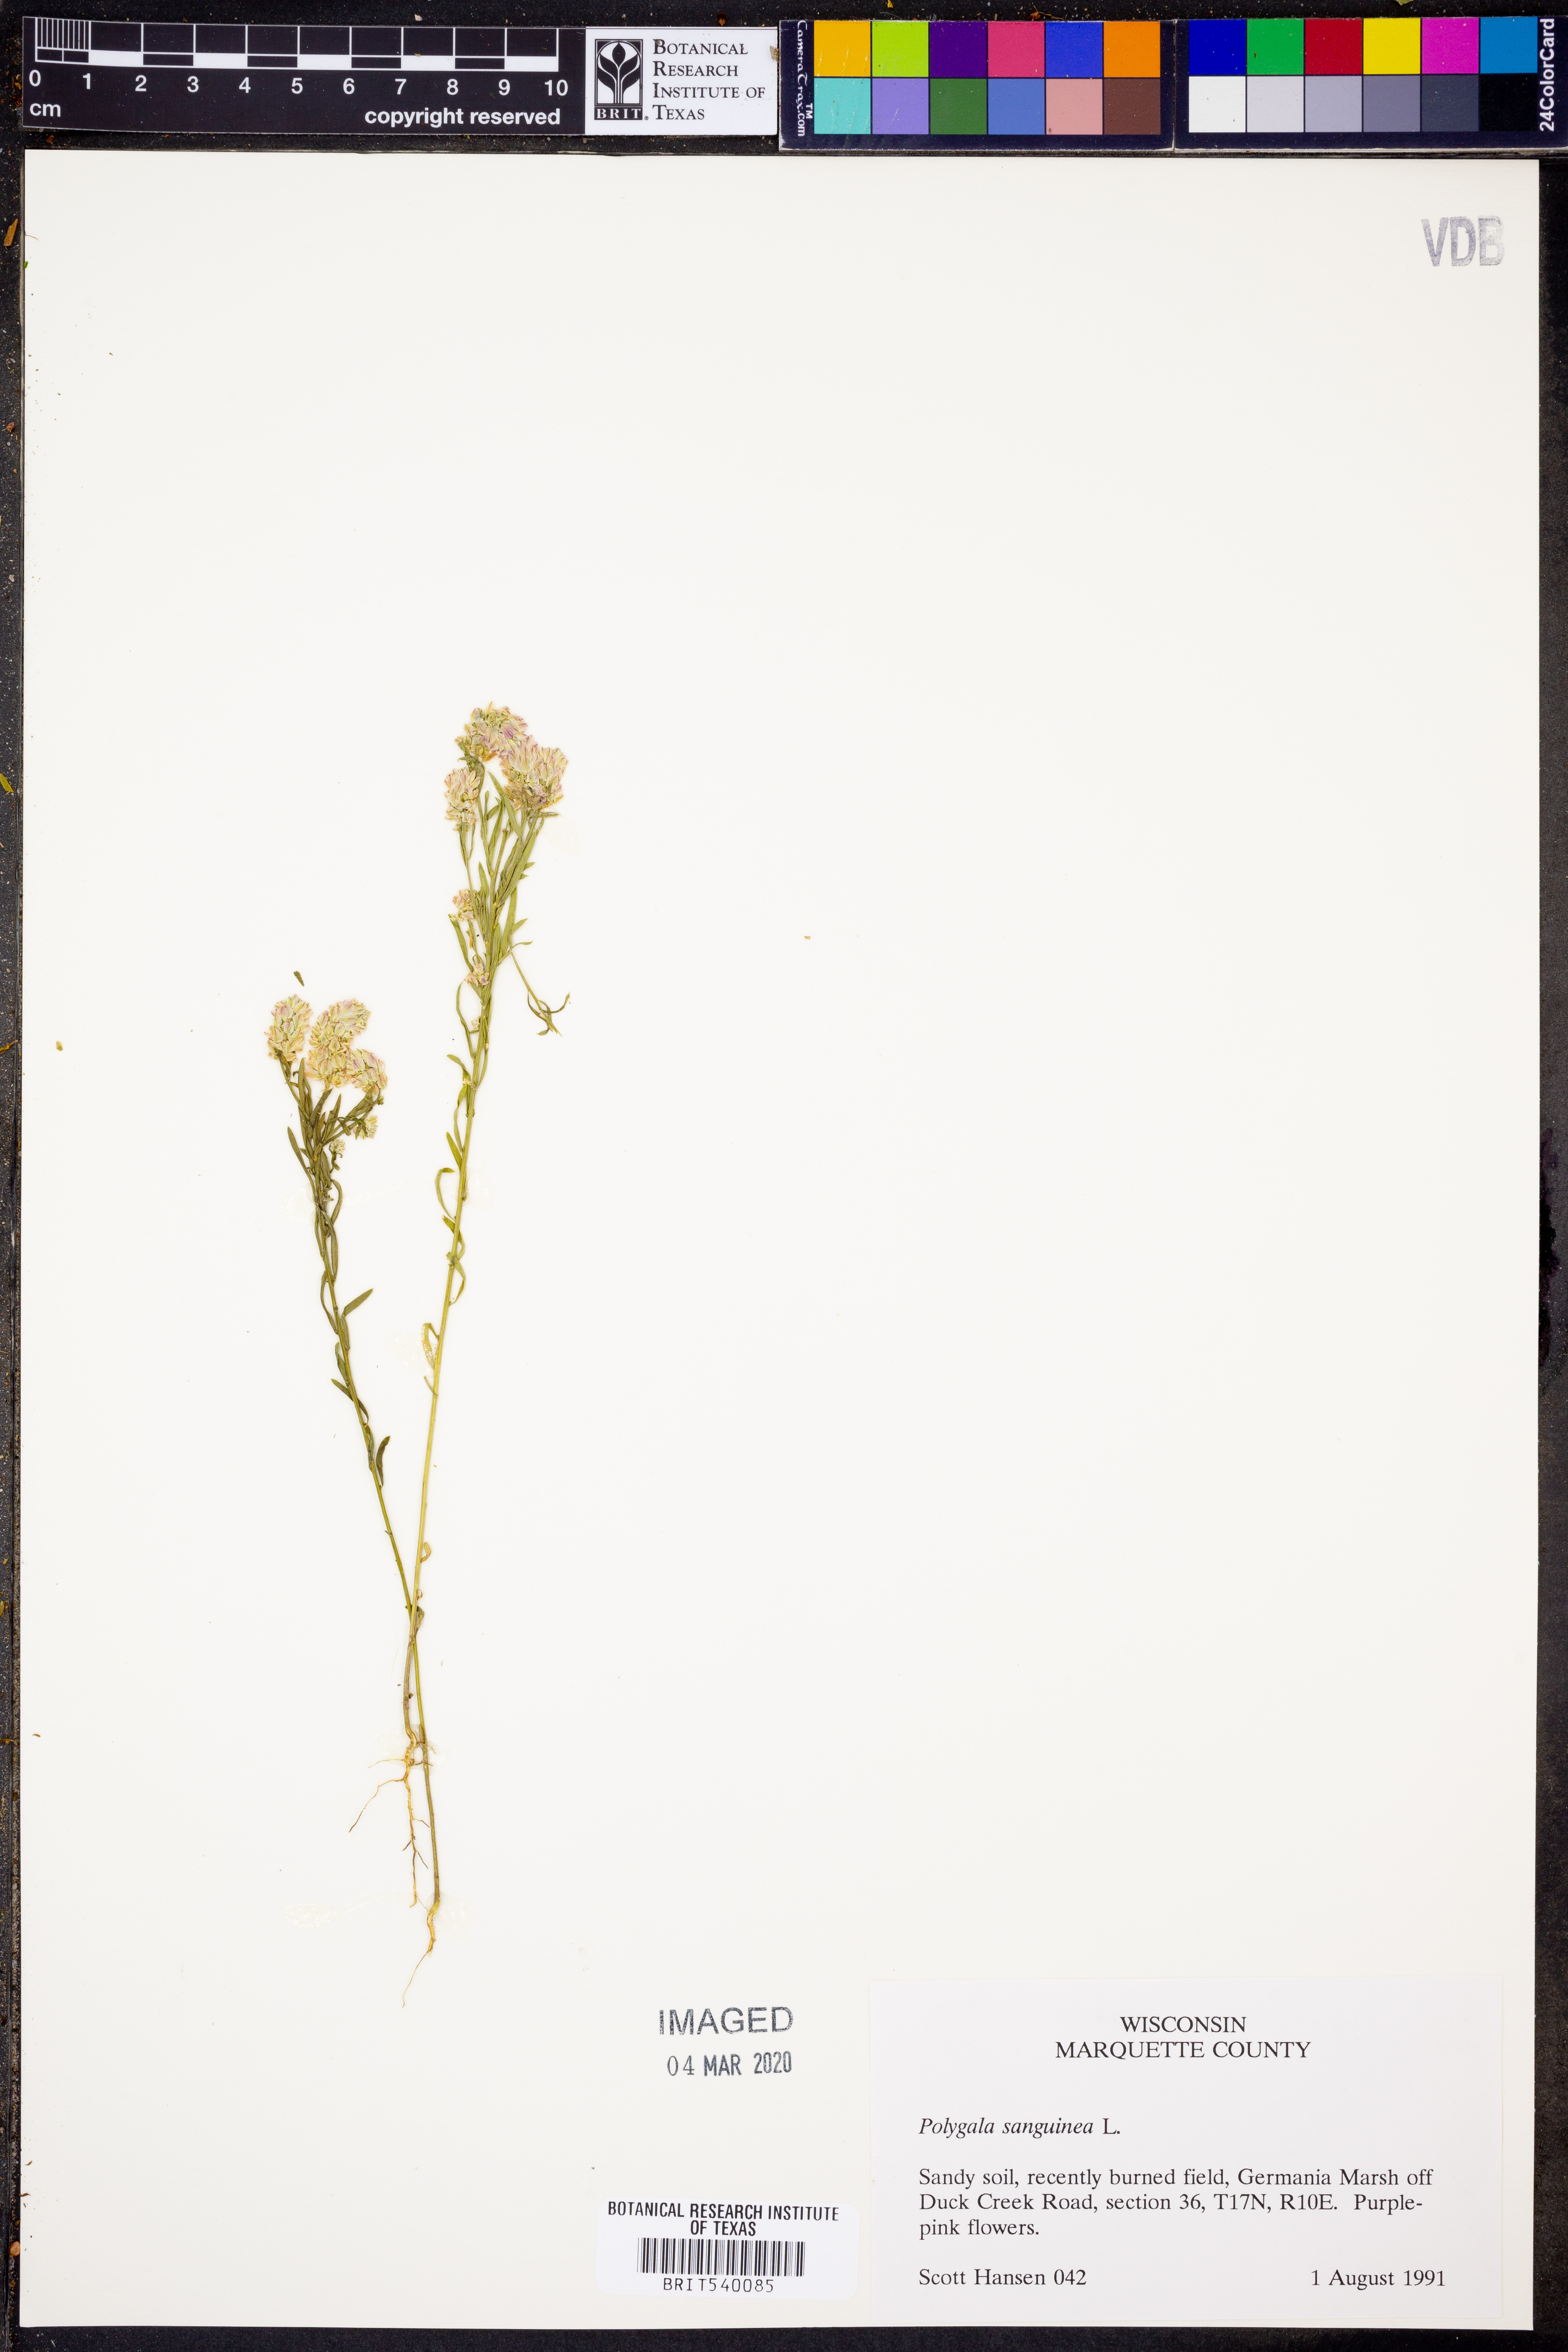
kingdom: Plantae
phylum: Tracheophyta
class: Magnoliopsida
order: Fabales
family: Polygalaceae
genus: Polygala
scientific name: Polygala sanguinea
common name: Blood milkwort
